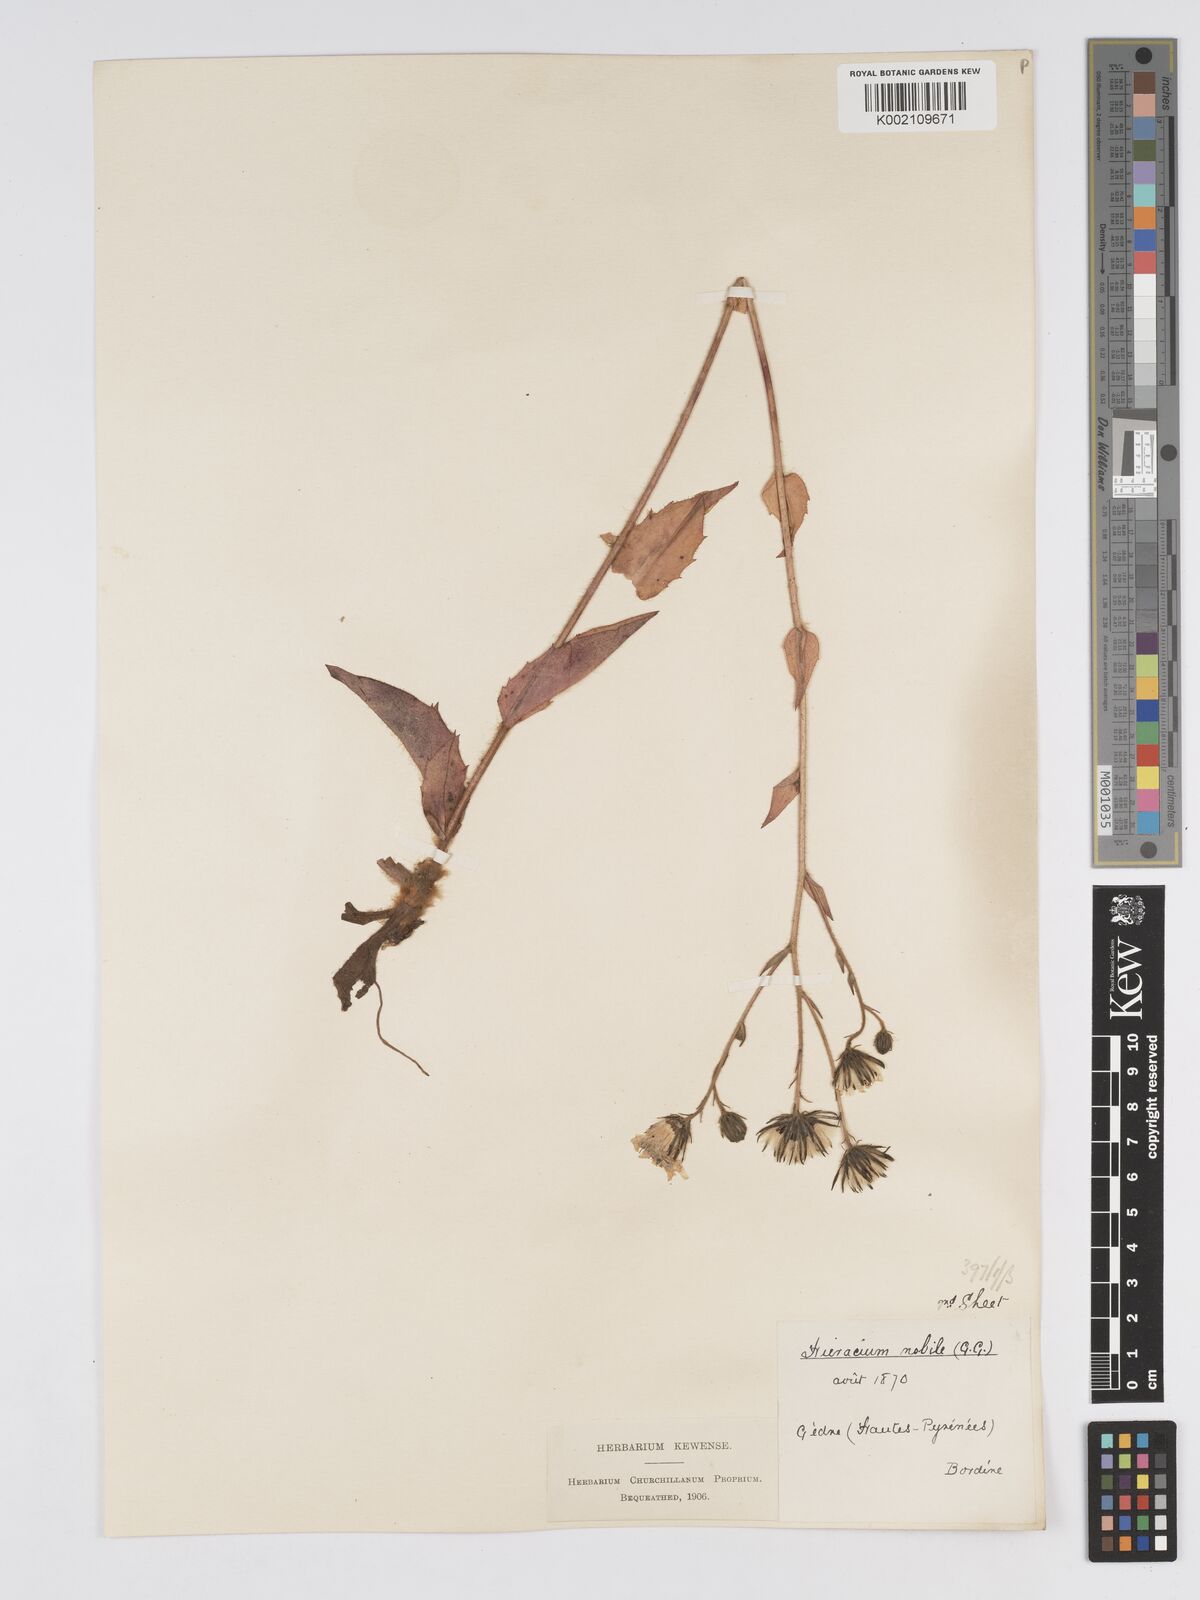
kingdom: Plantae
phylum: Tracheophyta
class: Magnoliopsida
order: Asterales
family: Asteraceae
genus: Hieracium
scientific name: Hieracium nobile
